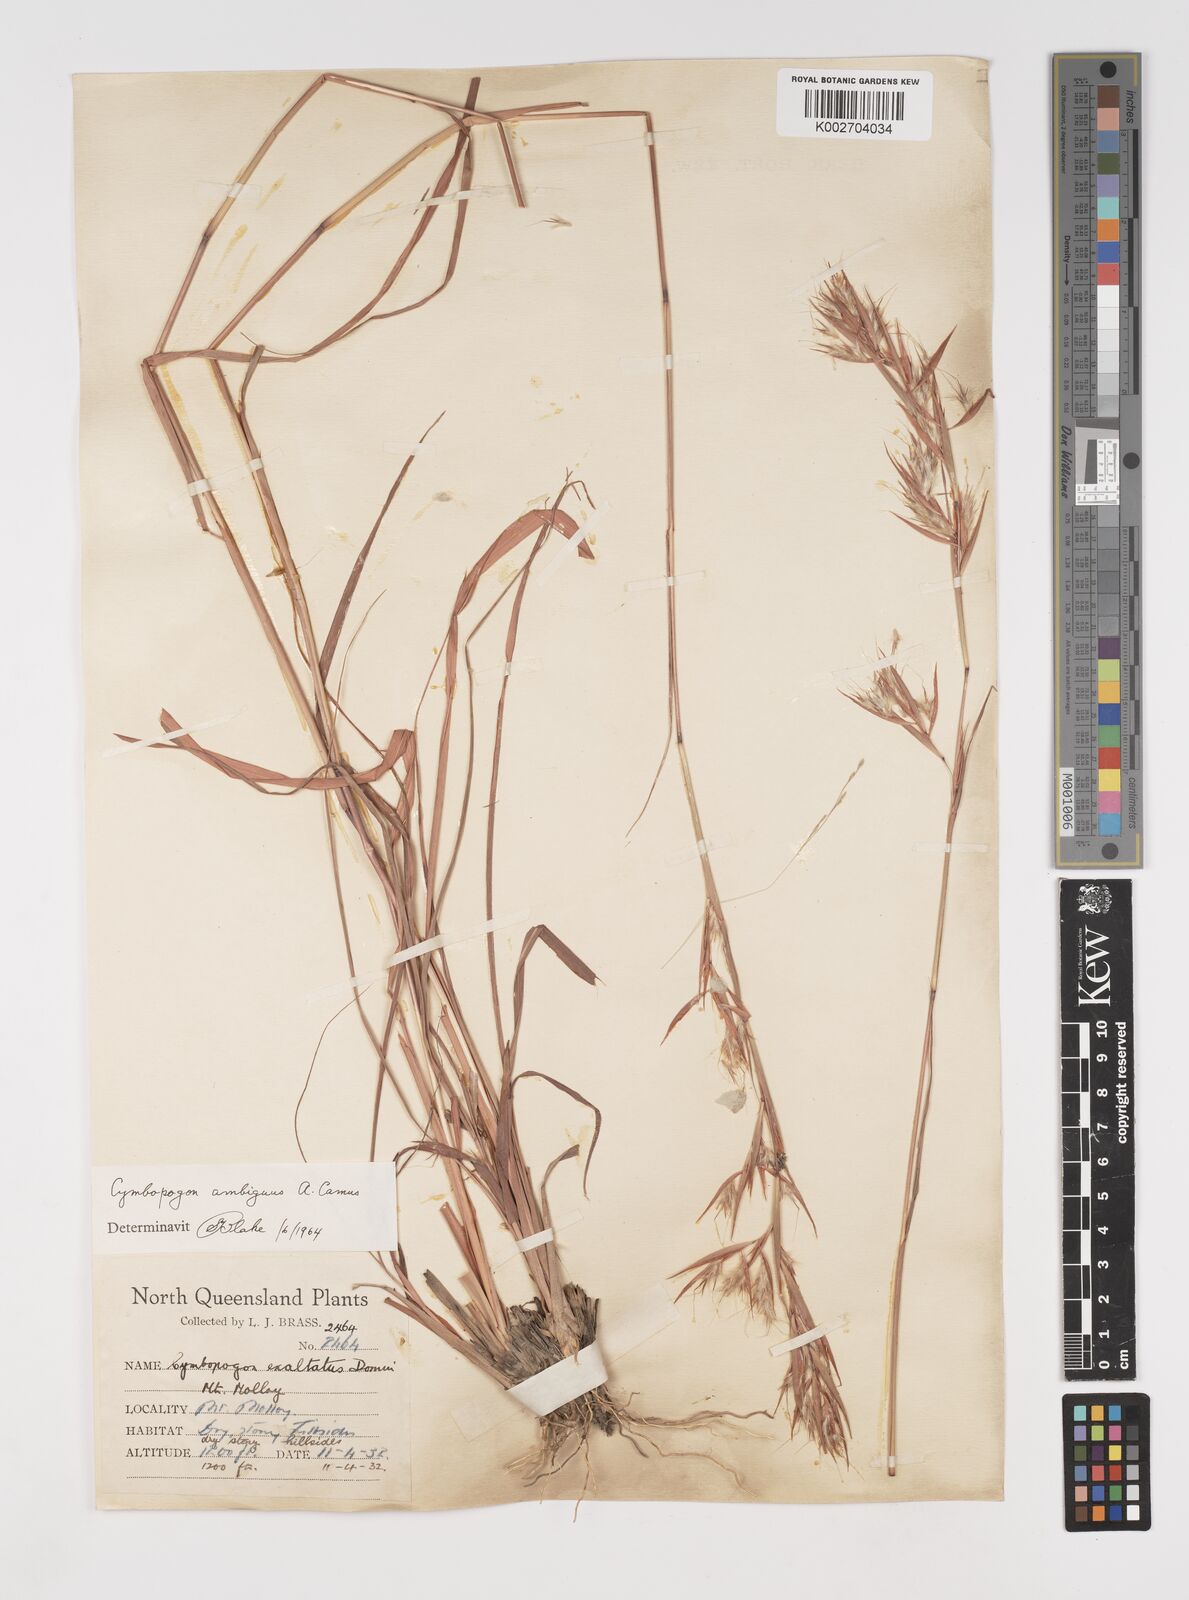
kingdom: Plantae
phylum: Tracheophyta
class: Liliopsida
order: Poales
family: Poaceae
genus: Cymbopogon
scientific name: Cymbopogon ambiguus
